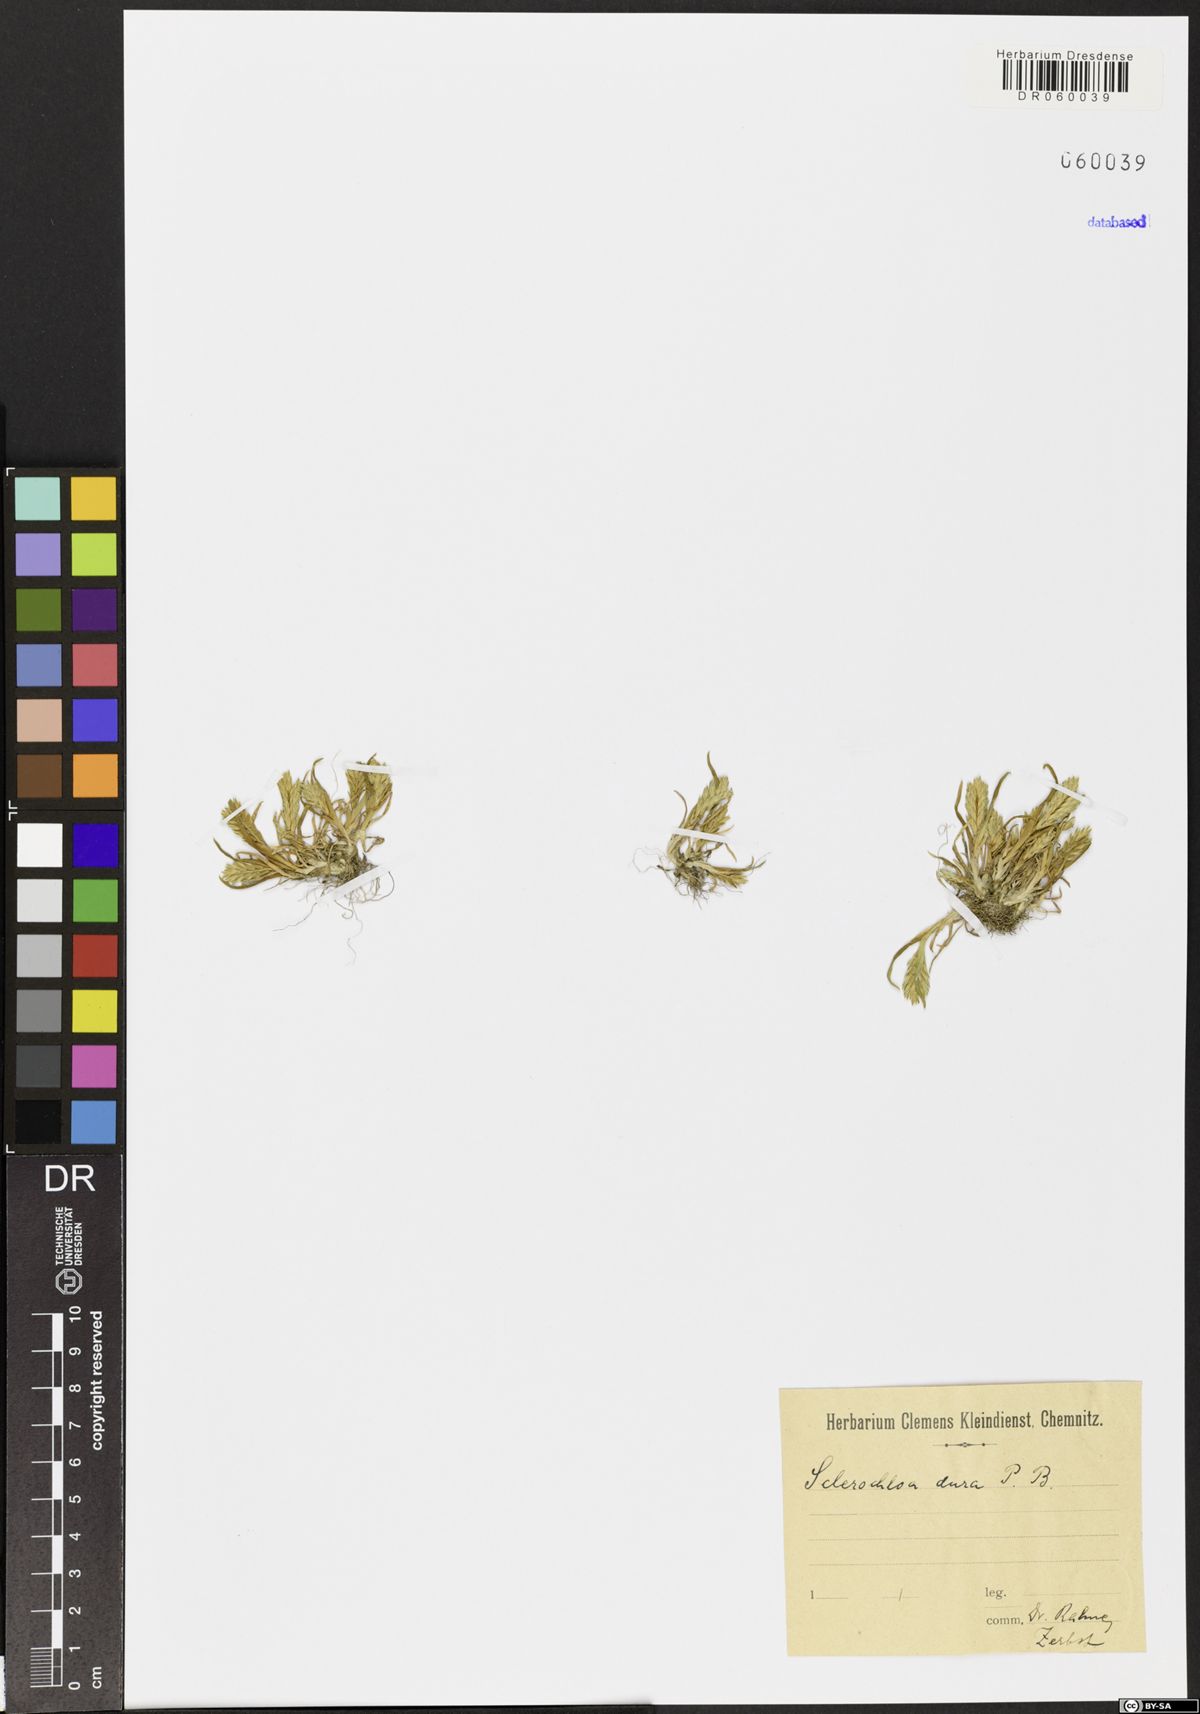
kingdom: Plantae
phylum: Tracheophyta
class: Liliopsida
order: Poales
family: Poaceae
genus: Sclerochloa
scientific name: Sclerochloa dura
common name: Common hardgrass
